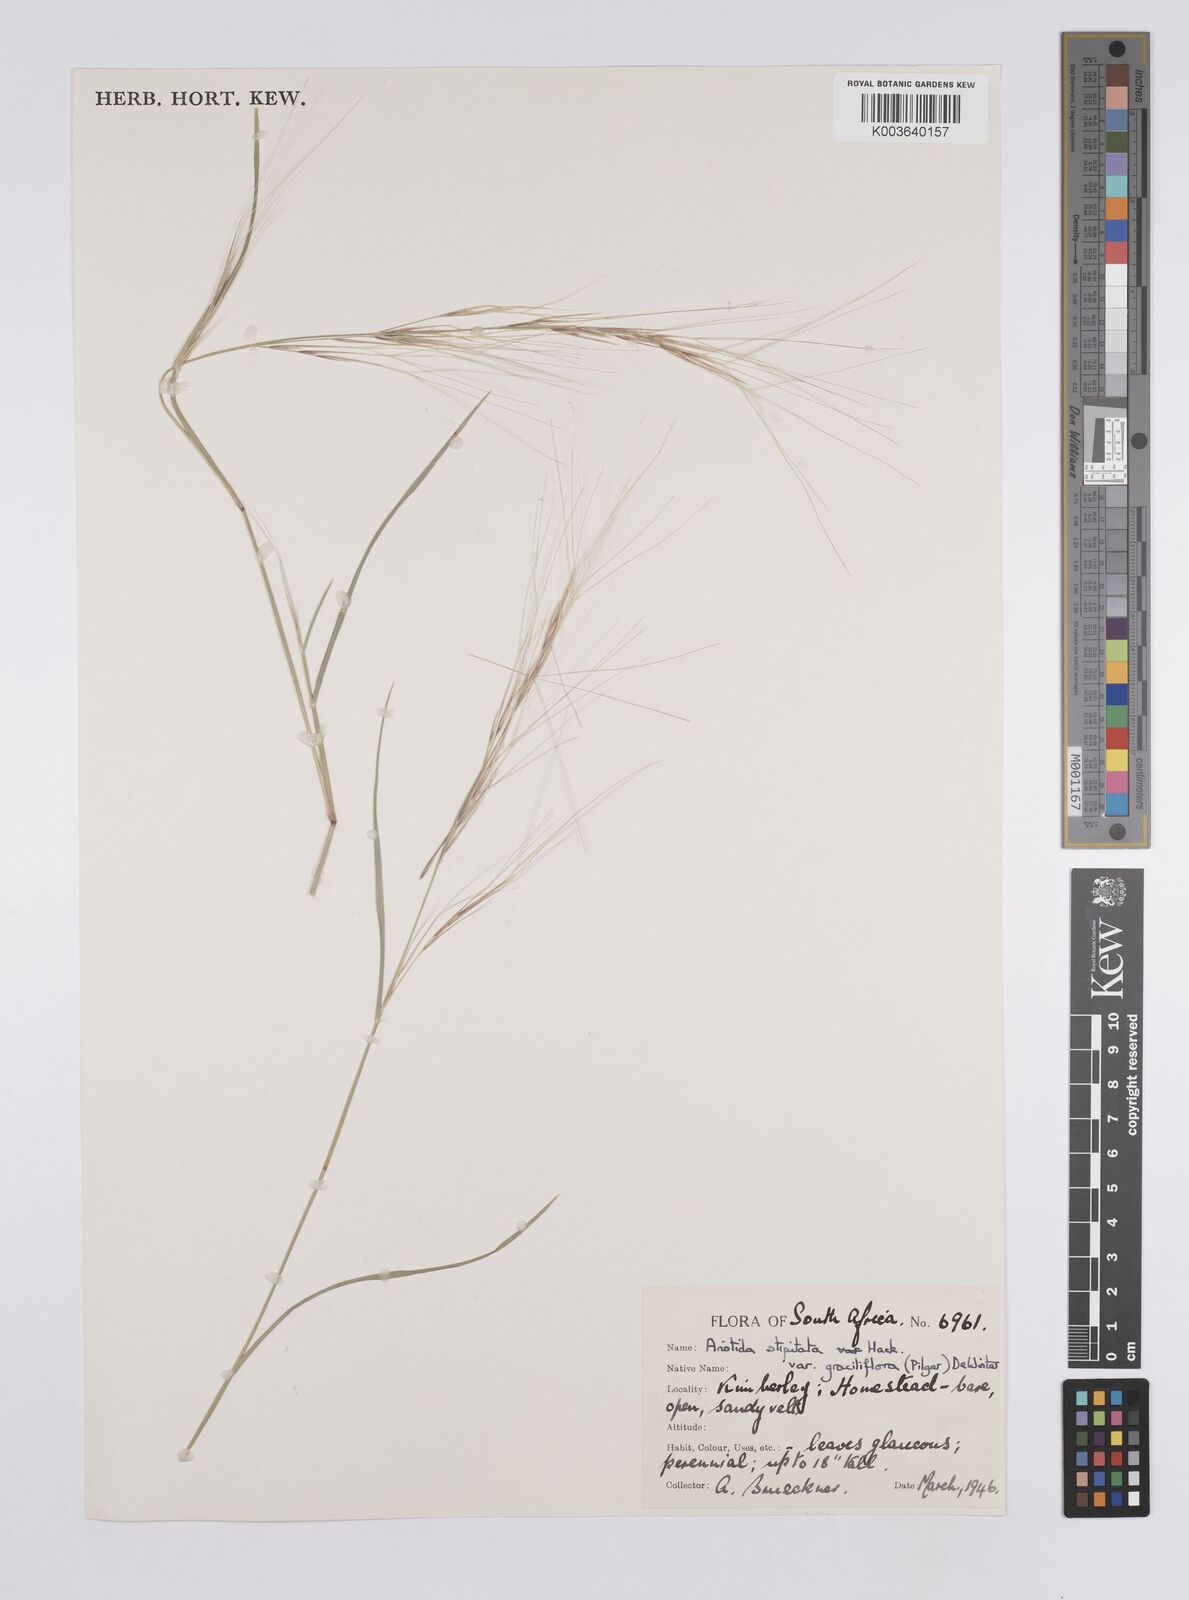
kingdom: Plantae
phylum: Tracheophyta
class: Liliopsida
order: Poales
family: Poaceae
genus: Aristida
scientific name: Aristida stipitata
